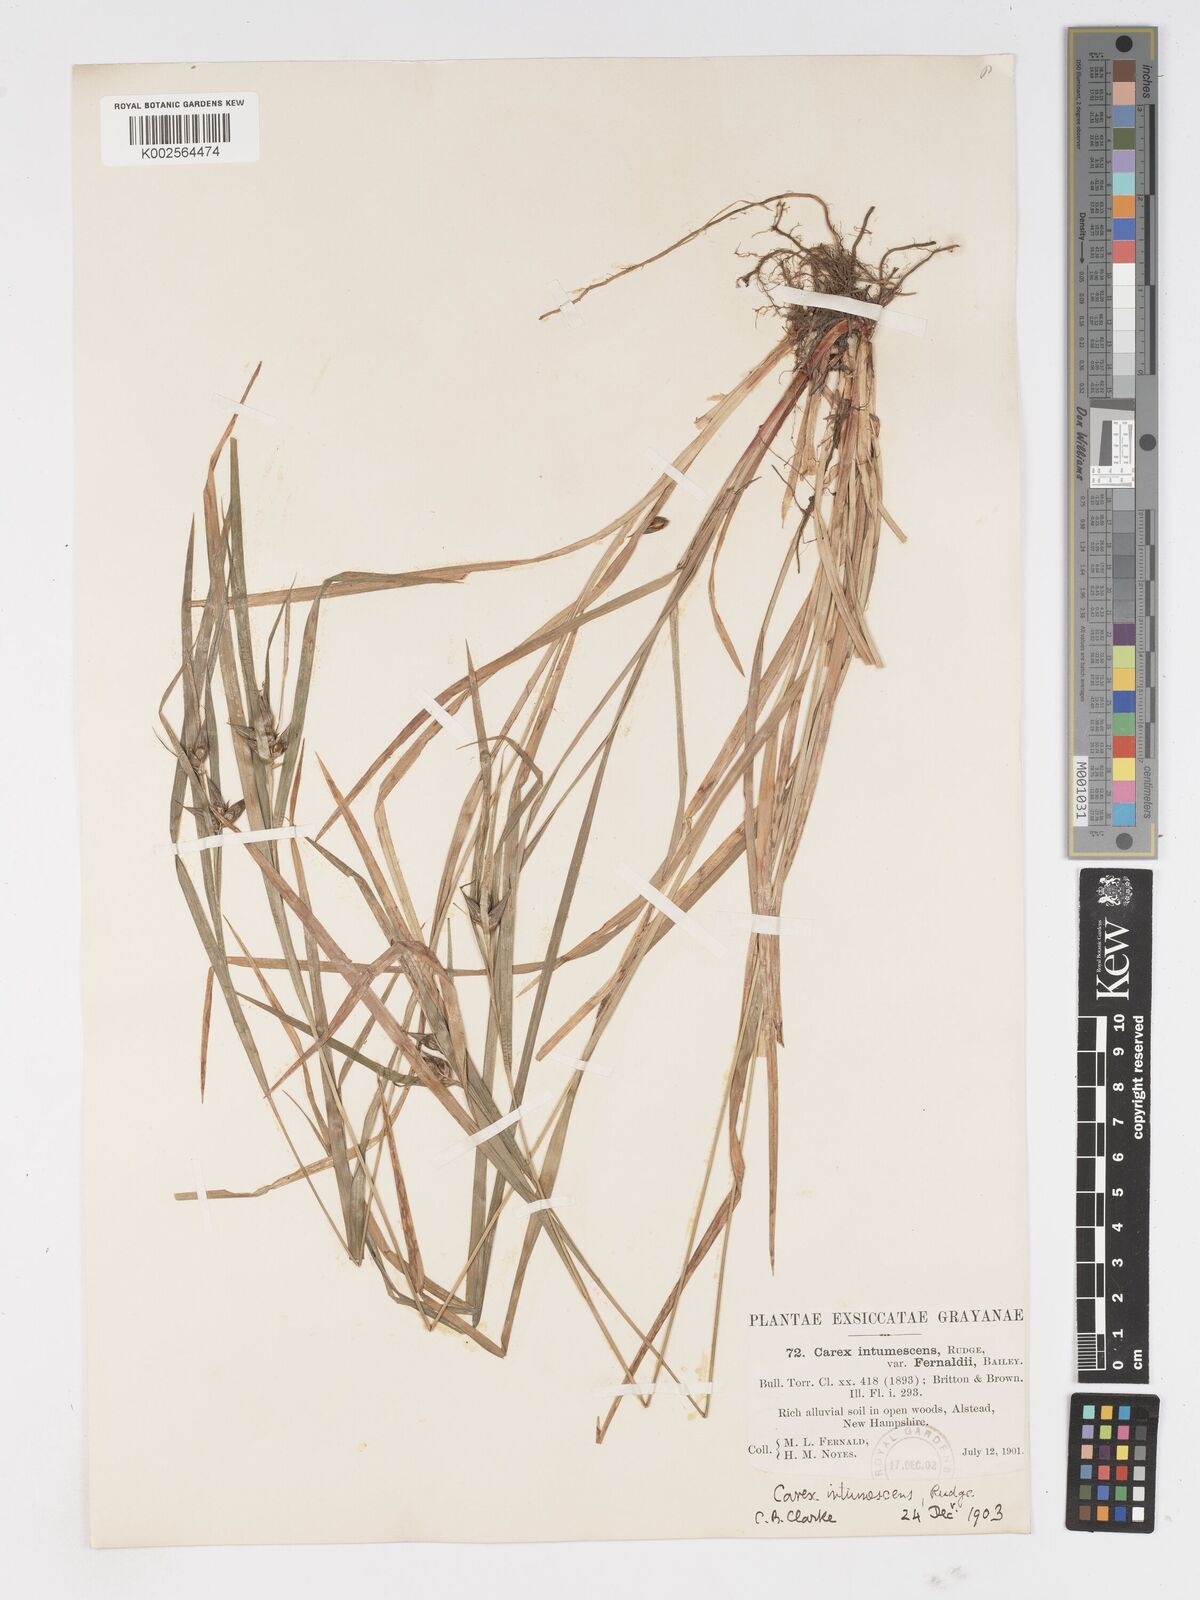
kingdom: Plantae
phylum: Tracheophyta
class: Liliopsida
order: Poales
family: Cyperaceae
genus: Carex
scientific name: Carex intumescens
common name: Greater bladder sedge
